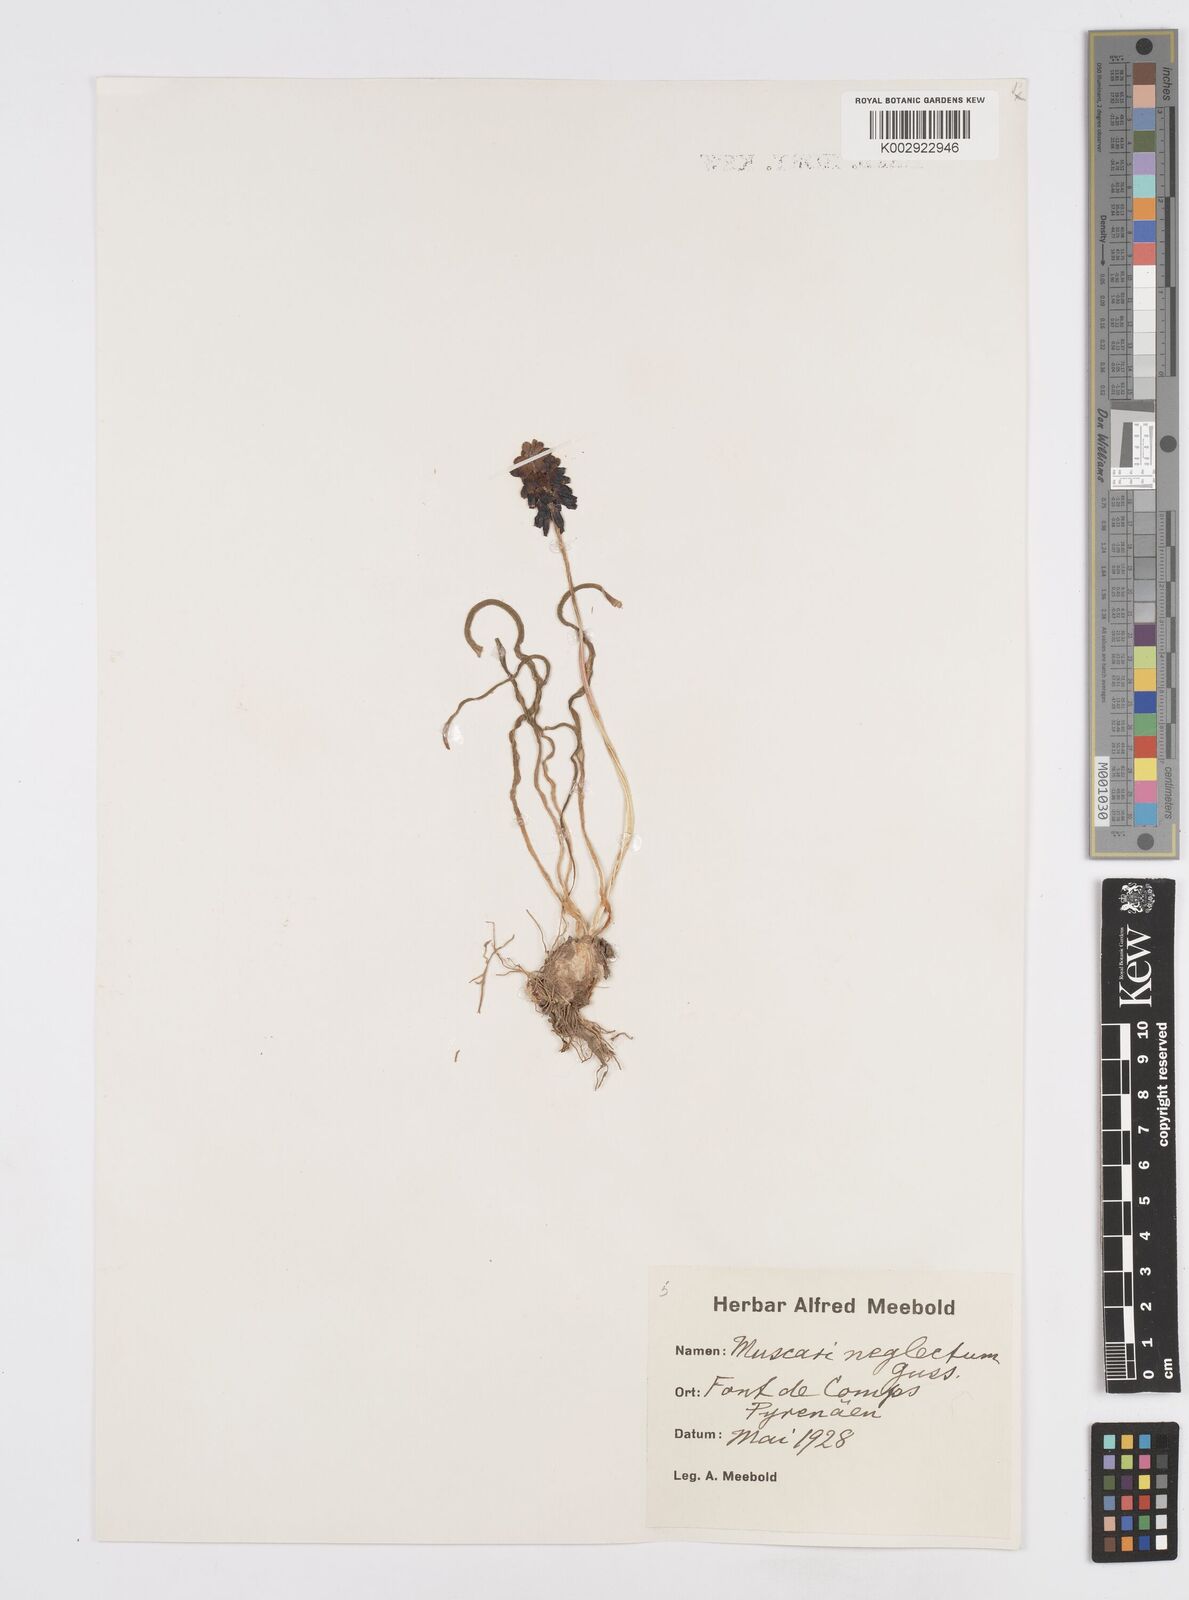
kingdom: Plantae
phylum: Tracheophyta
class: Liliopsida
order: Asparagales
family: Asparagaceae
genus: Muscari
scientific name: Muscari neglectum
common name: Grape-hyacinth
